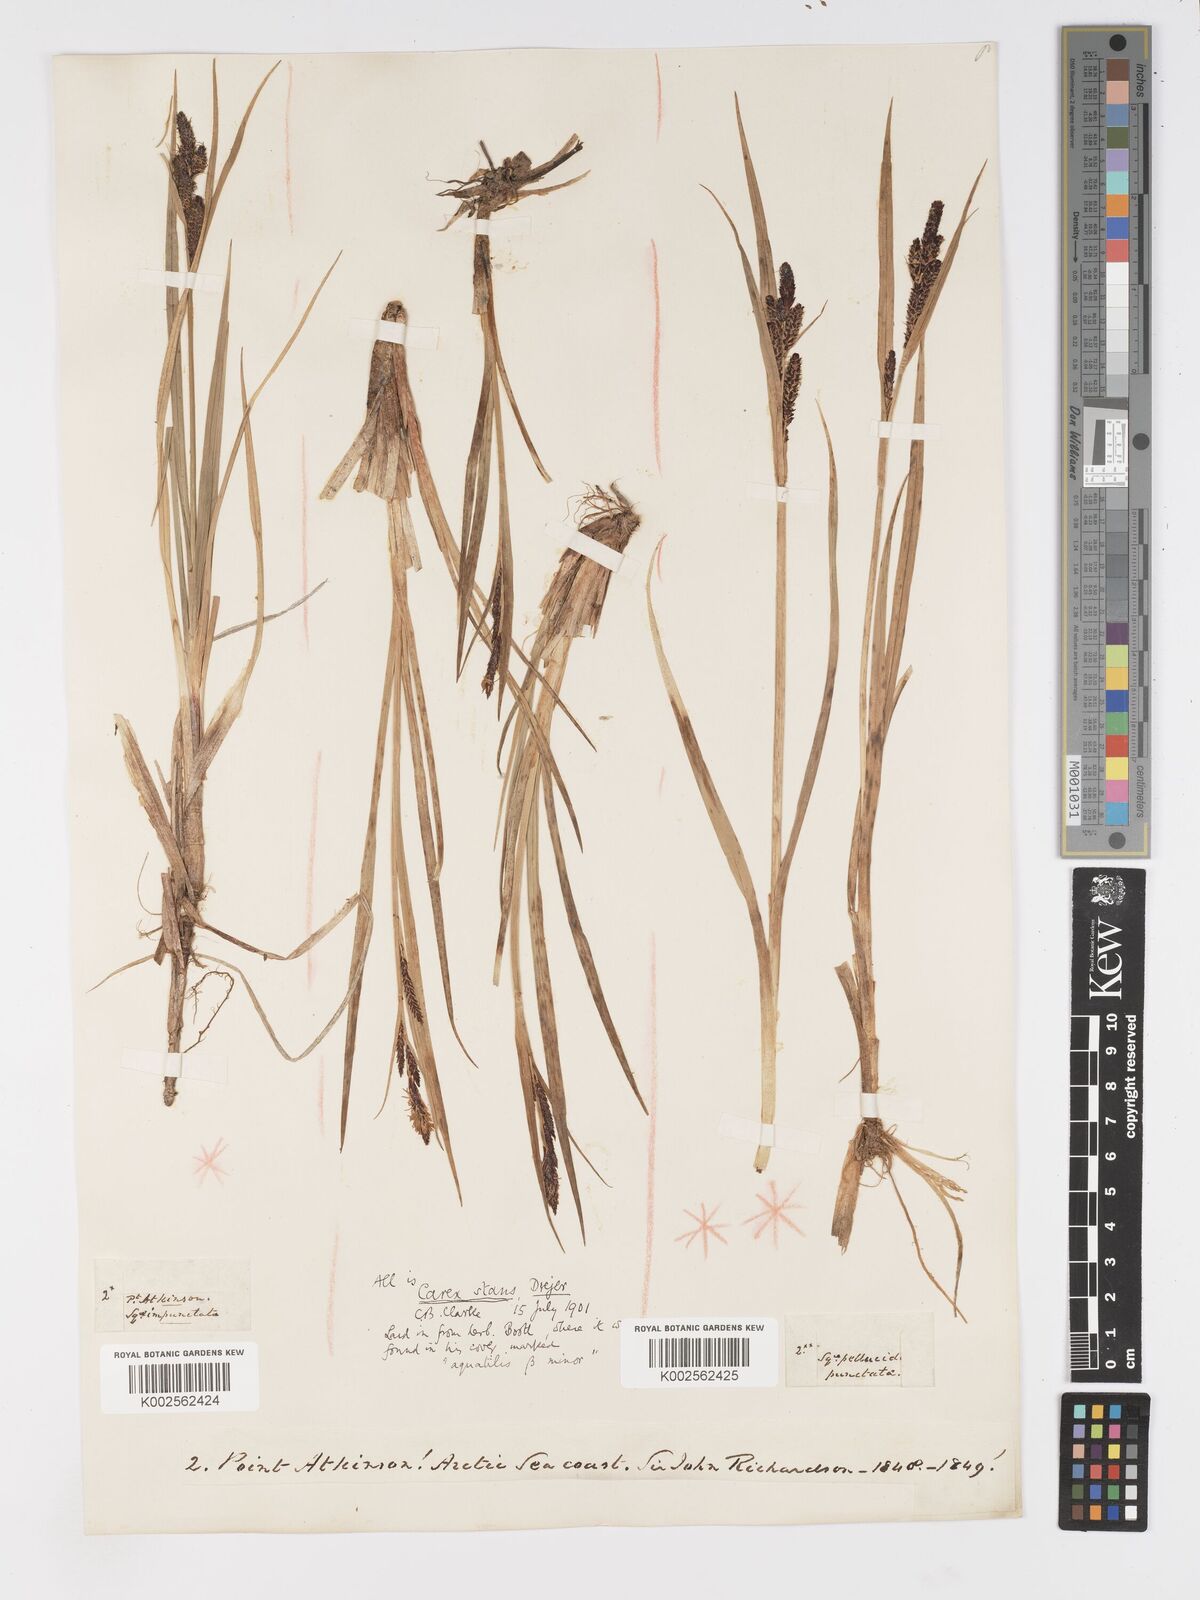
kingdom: Plantae
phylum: Tracheophyta
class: Liliopsida
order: Poales
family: Cyperaceae
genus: Carex
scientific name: Carex
